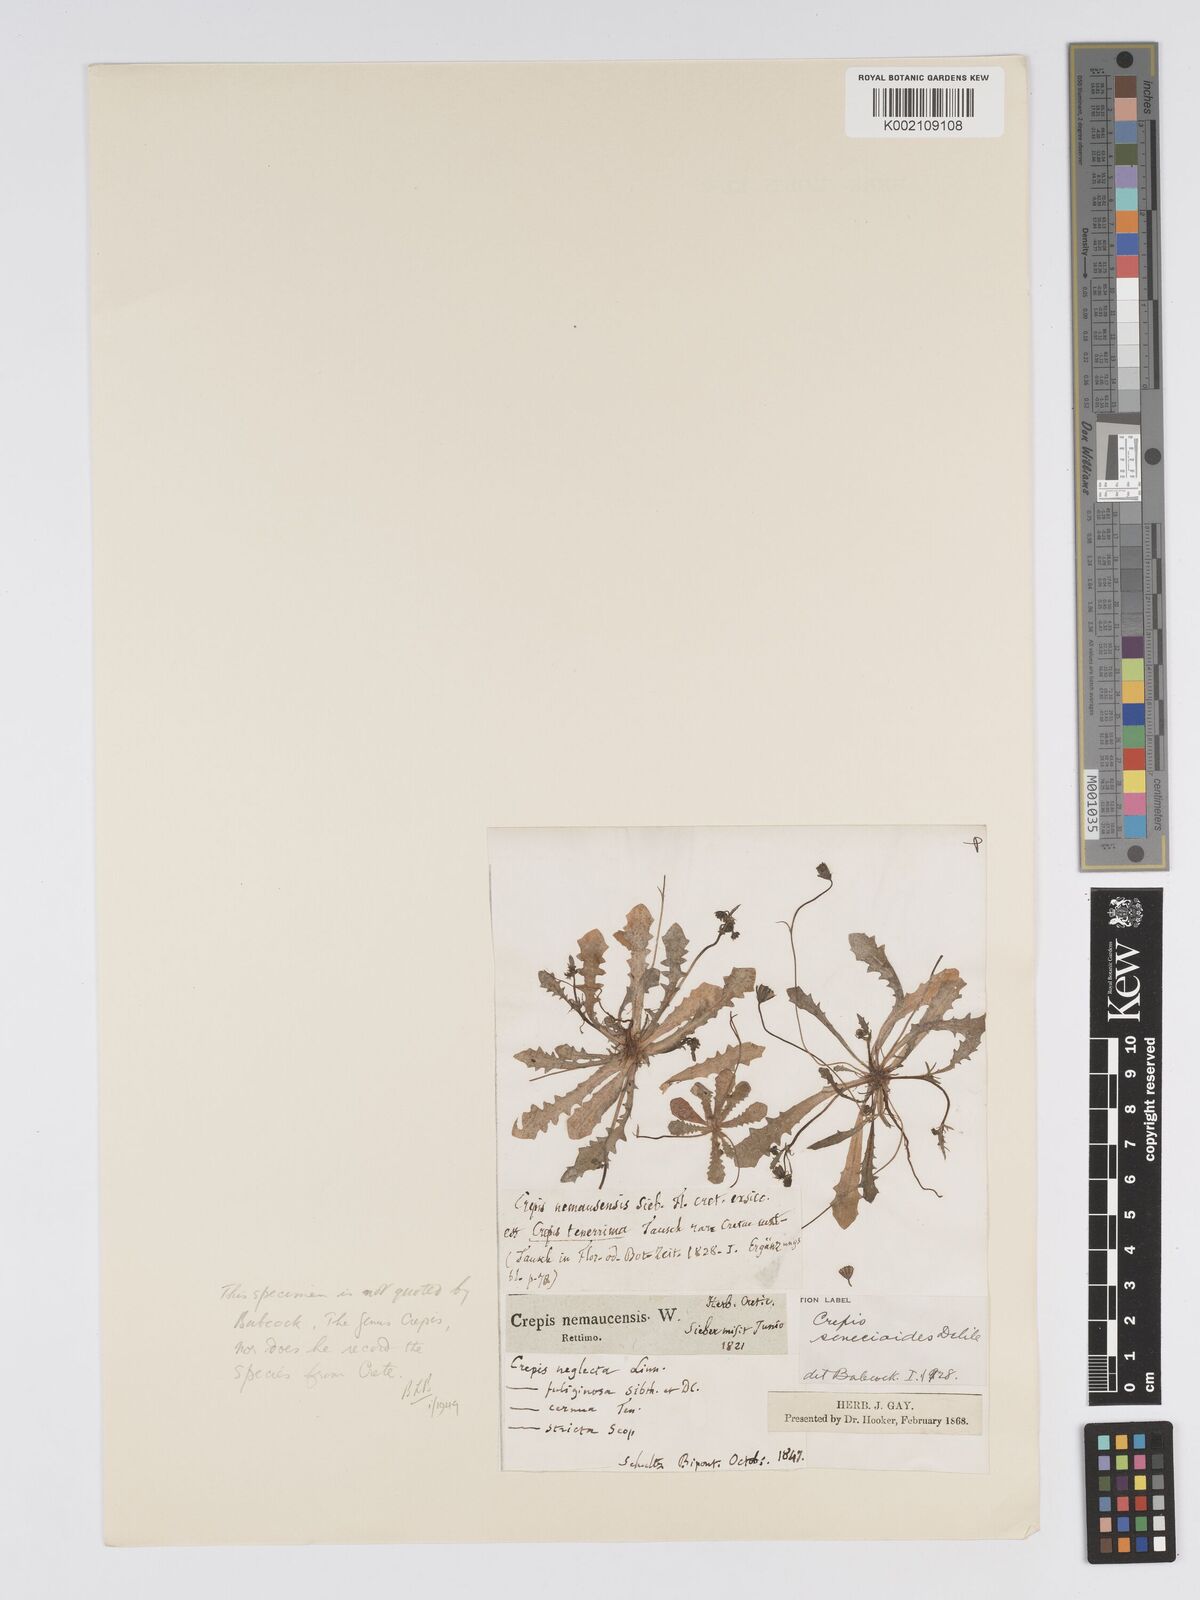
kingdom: Plantae
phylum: Tracheophyta
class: Magnoliopsida
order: Asterales
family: Asteraceae
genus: Crepis
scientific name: Crepis senecioides
